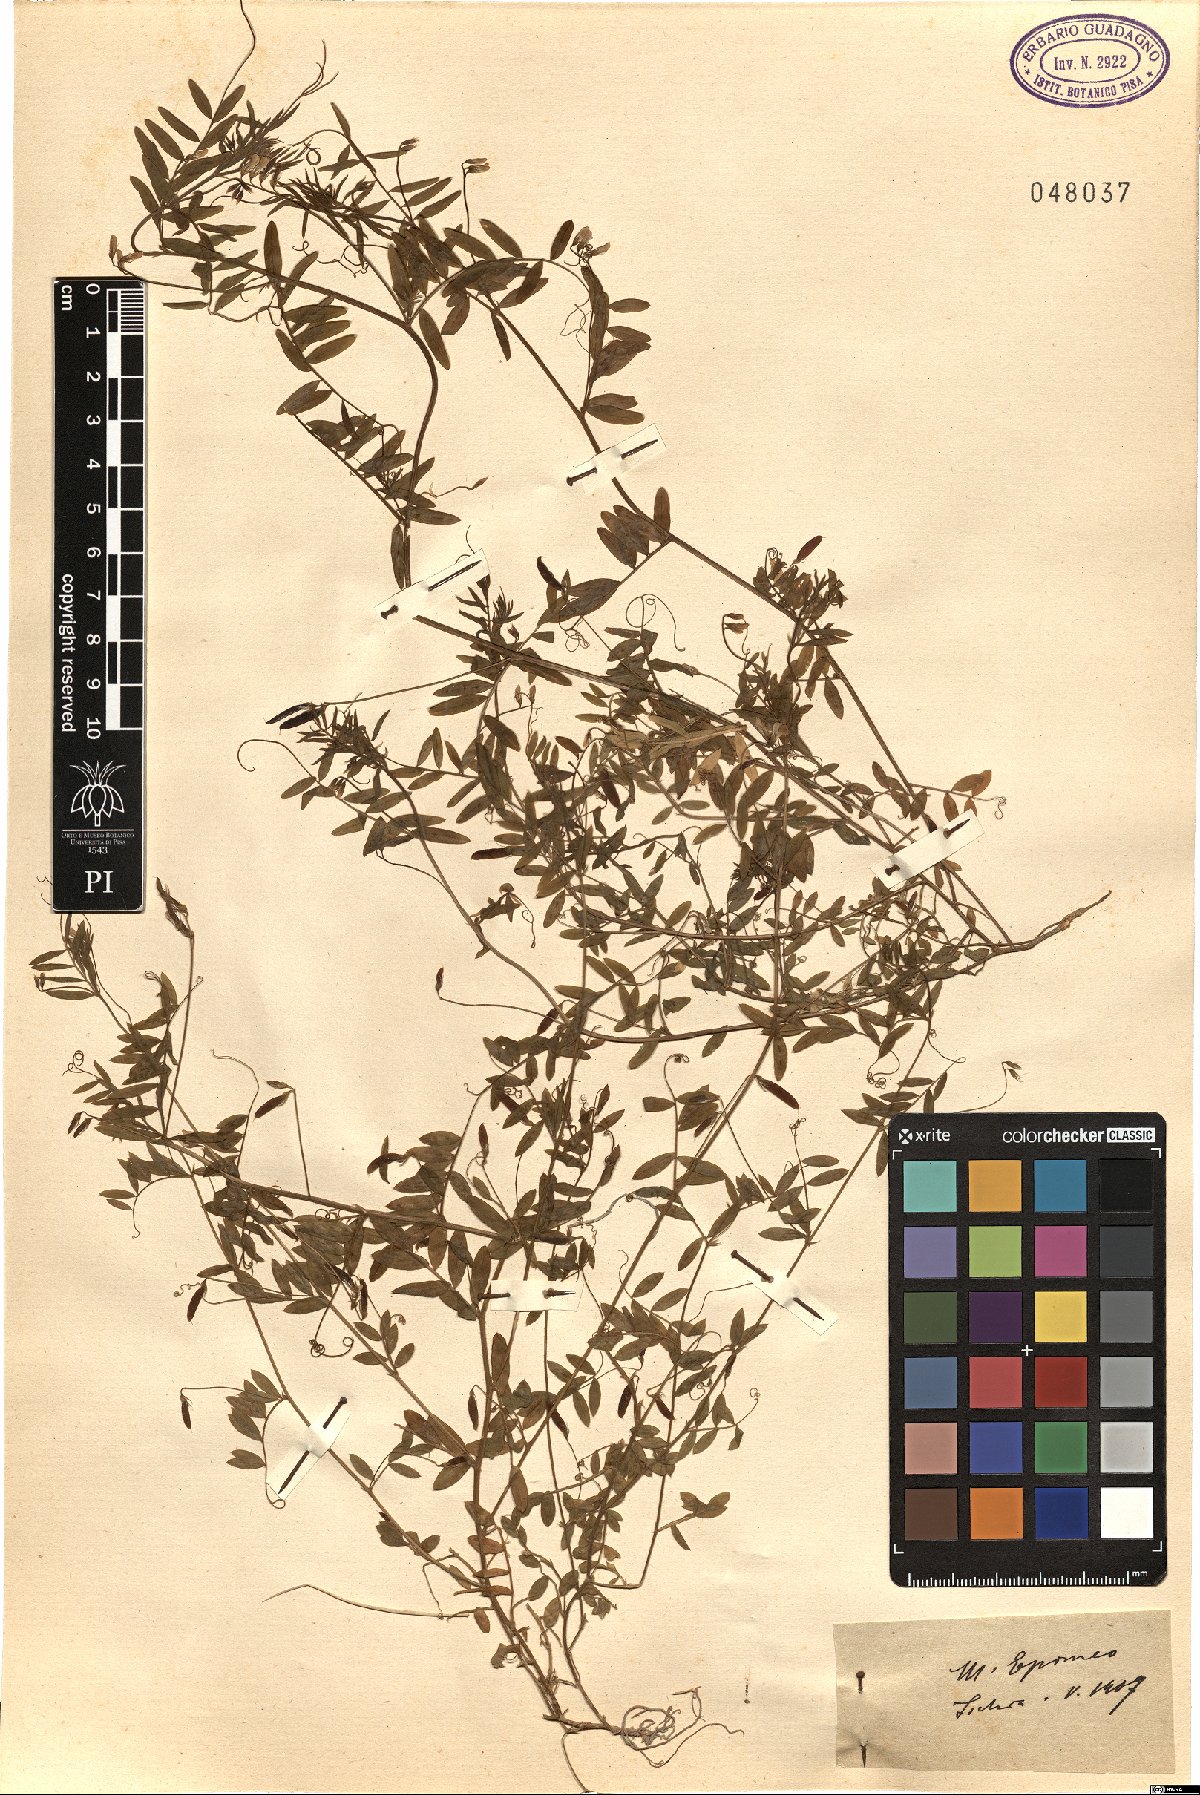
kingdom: Plantae
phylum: Tracheophyta
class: Magnoliopsida
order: Fabales
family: Fabaceae
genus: Vicia
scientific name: Vicia
